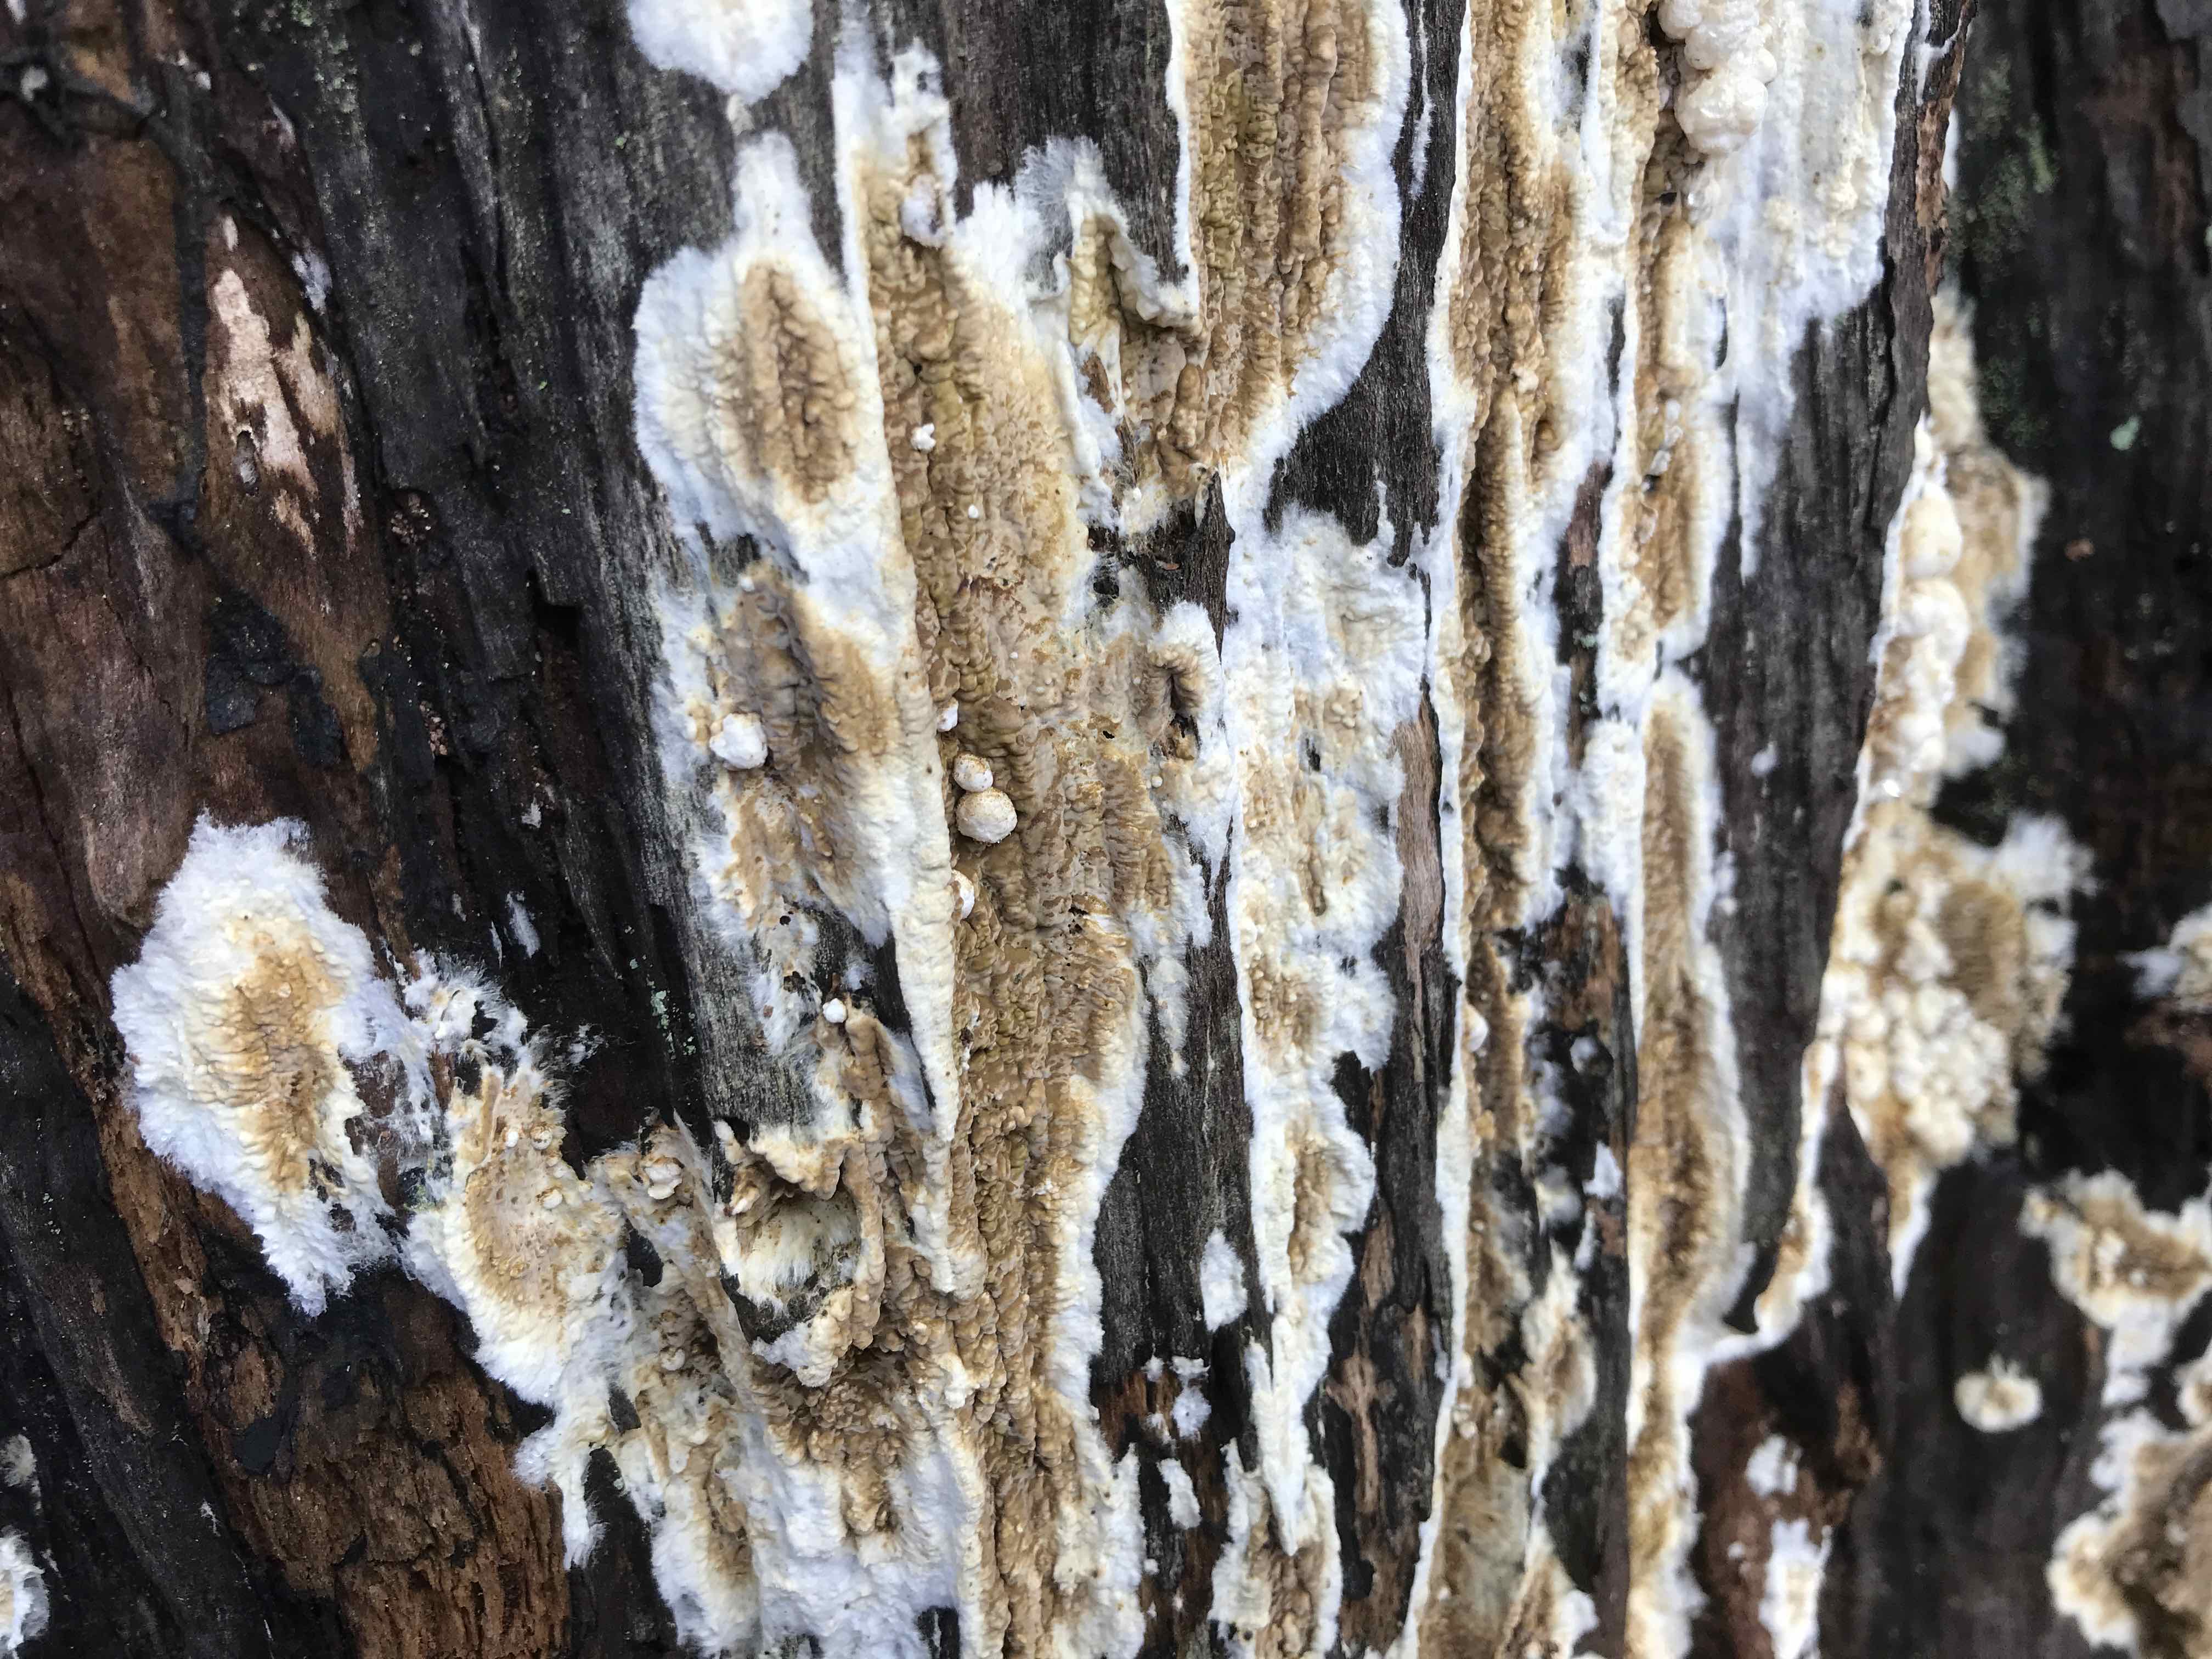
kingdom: Fungi
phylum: Basidiomycota
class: Agaricomycetes
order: Boletales
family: Coniophoraceae
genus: Coniophora
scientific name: Coniophora puteana
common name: gul tømmersvamp
